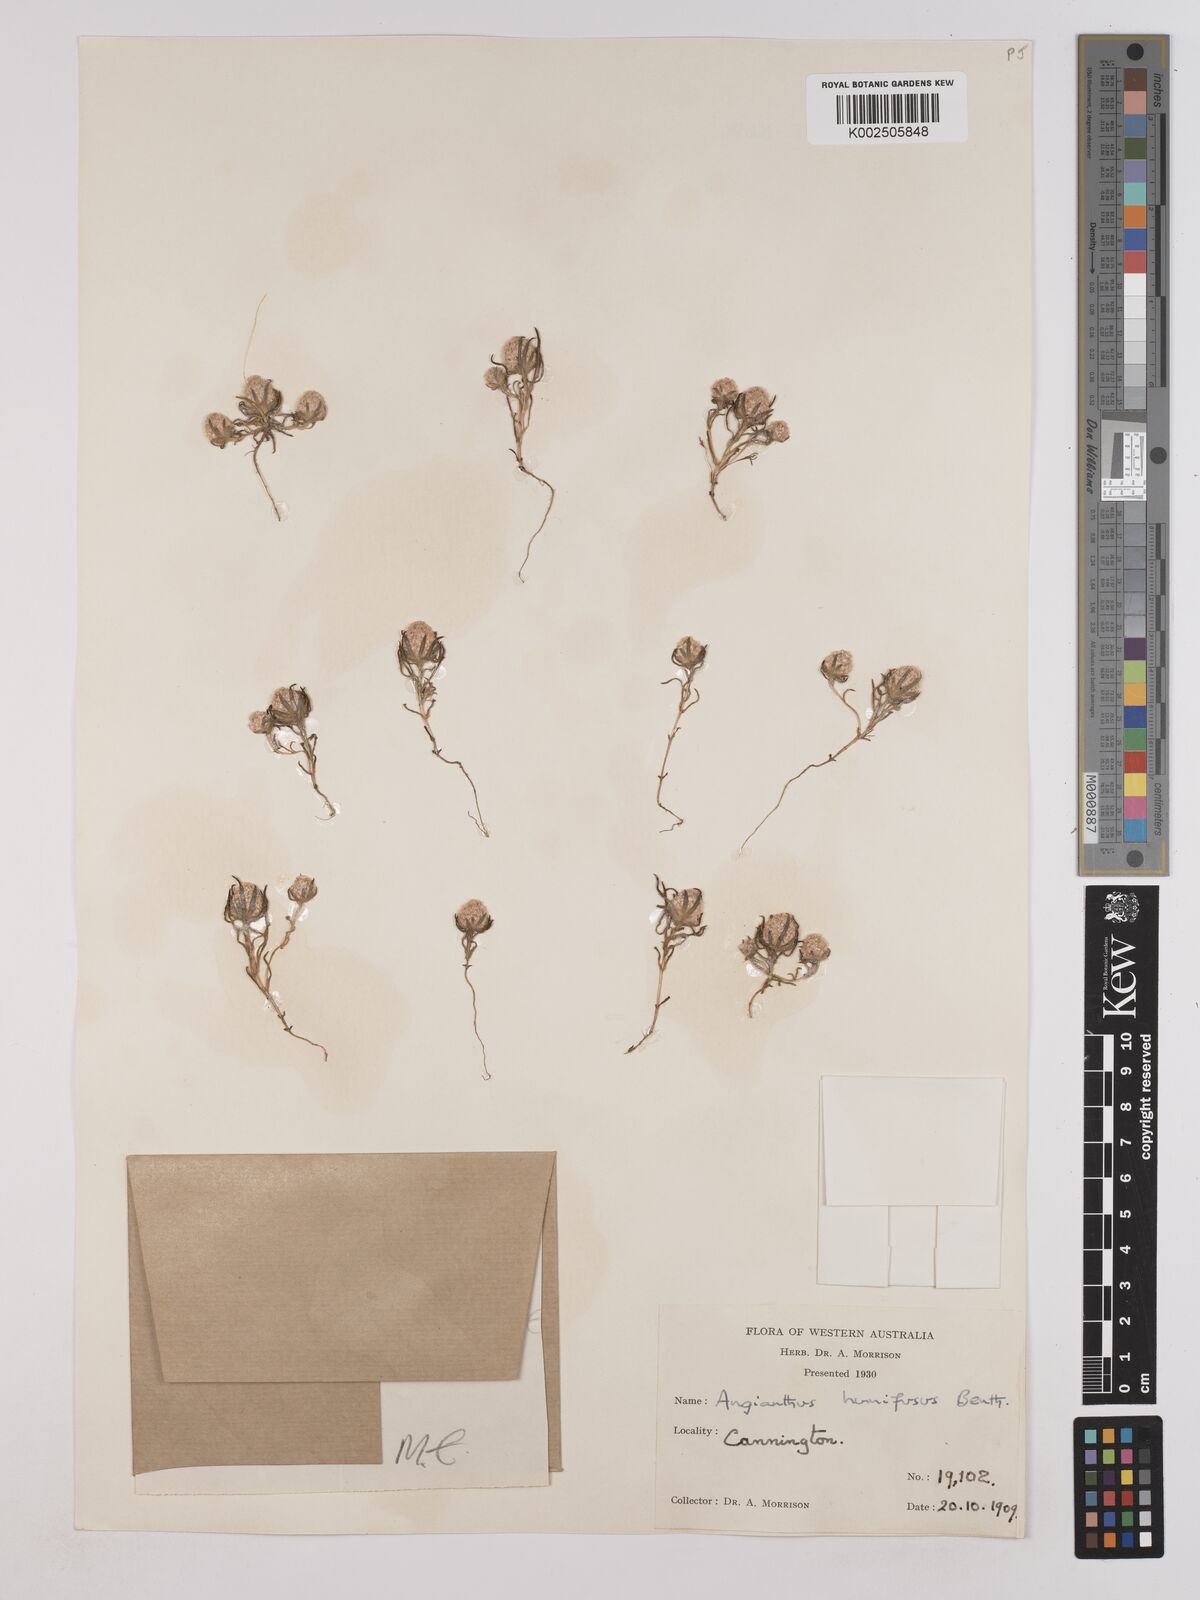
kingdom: Plantae
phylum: Tracheophyta
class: Magnoliopsida
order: Asterales
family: Asteraceae
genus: Siloxerus
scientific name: Siloxerus humifusus
